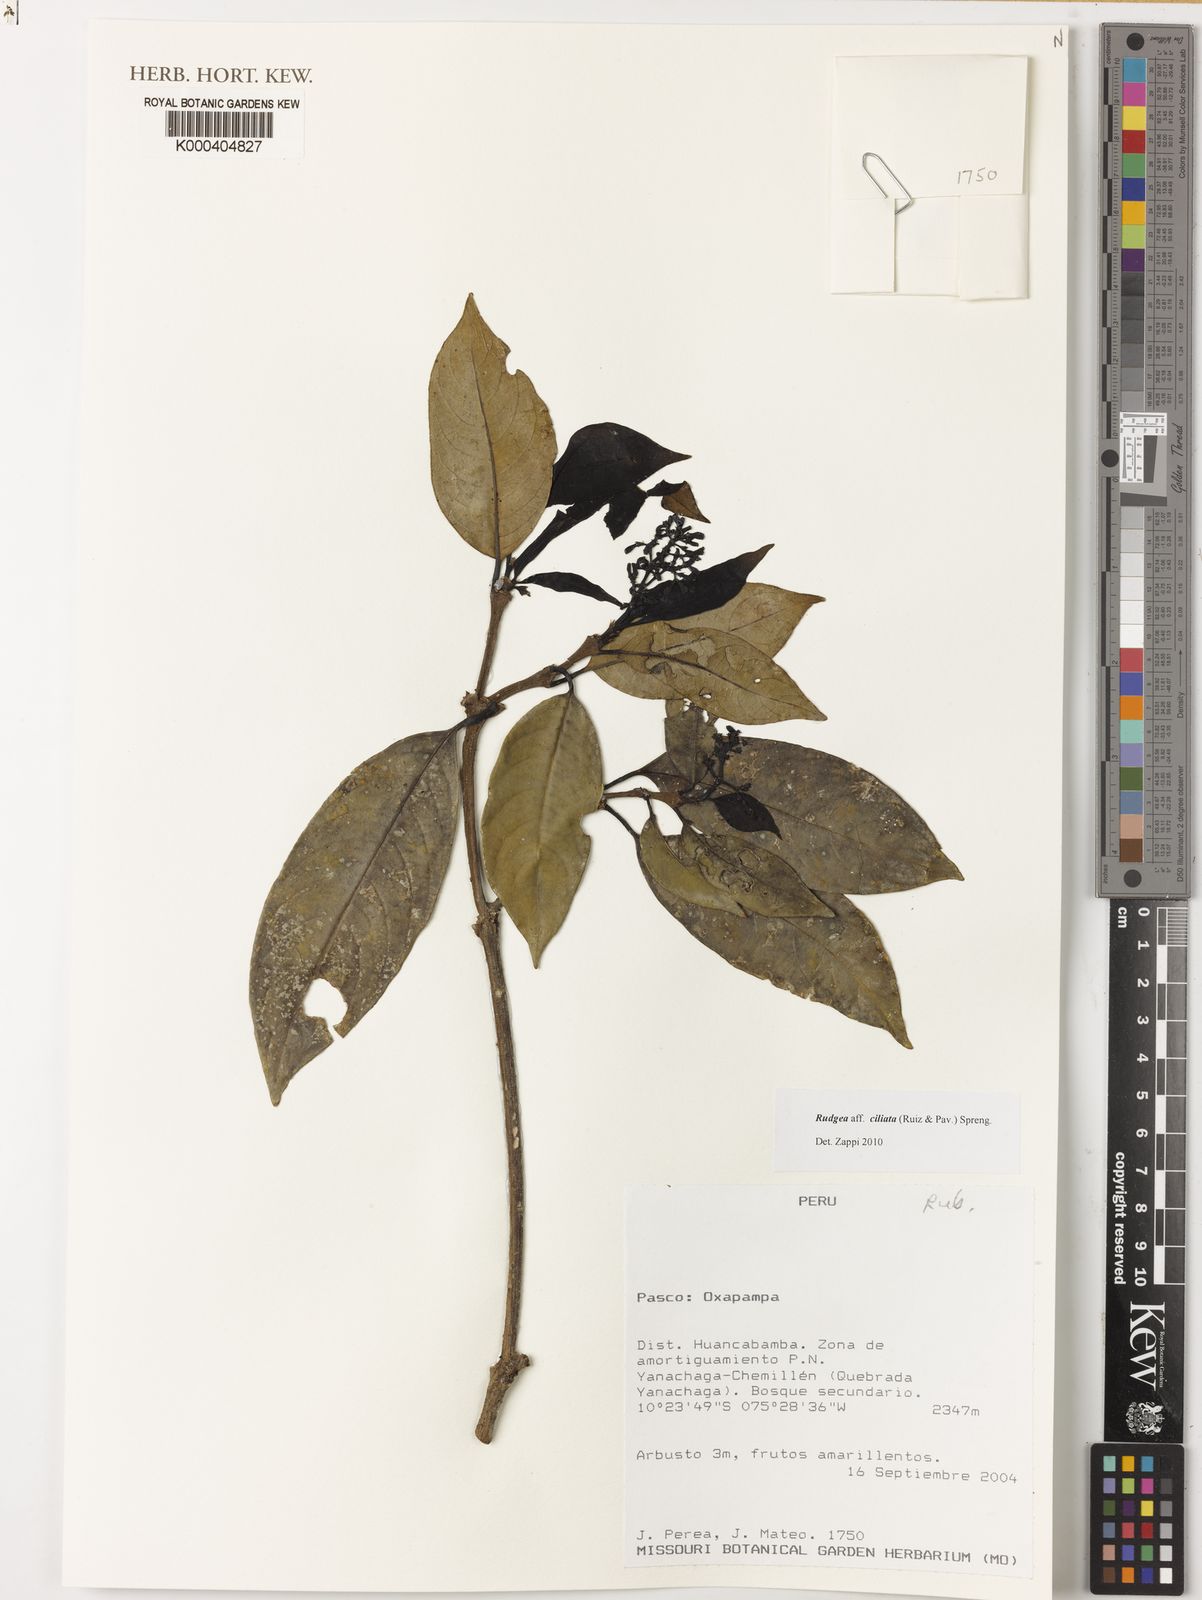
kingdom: Plantae
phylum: Tracheophyta
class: Magnoliopsida
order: Gentianales
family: Rubiaceae
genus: Rudgea
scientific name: Rudgea ciliata
